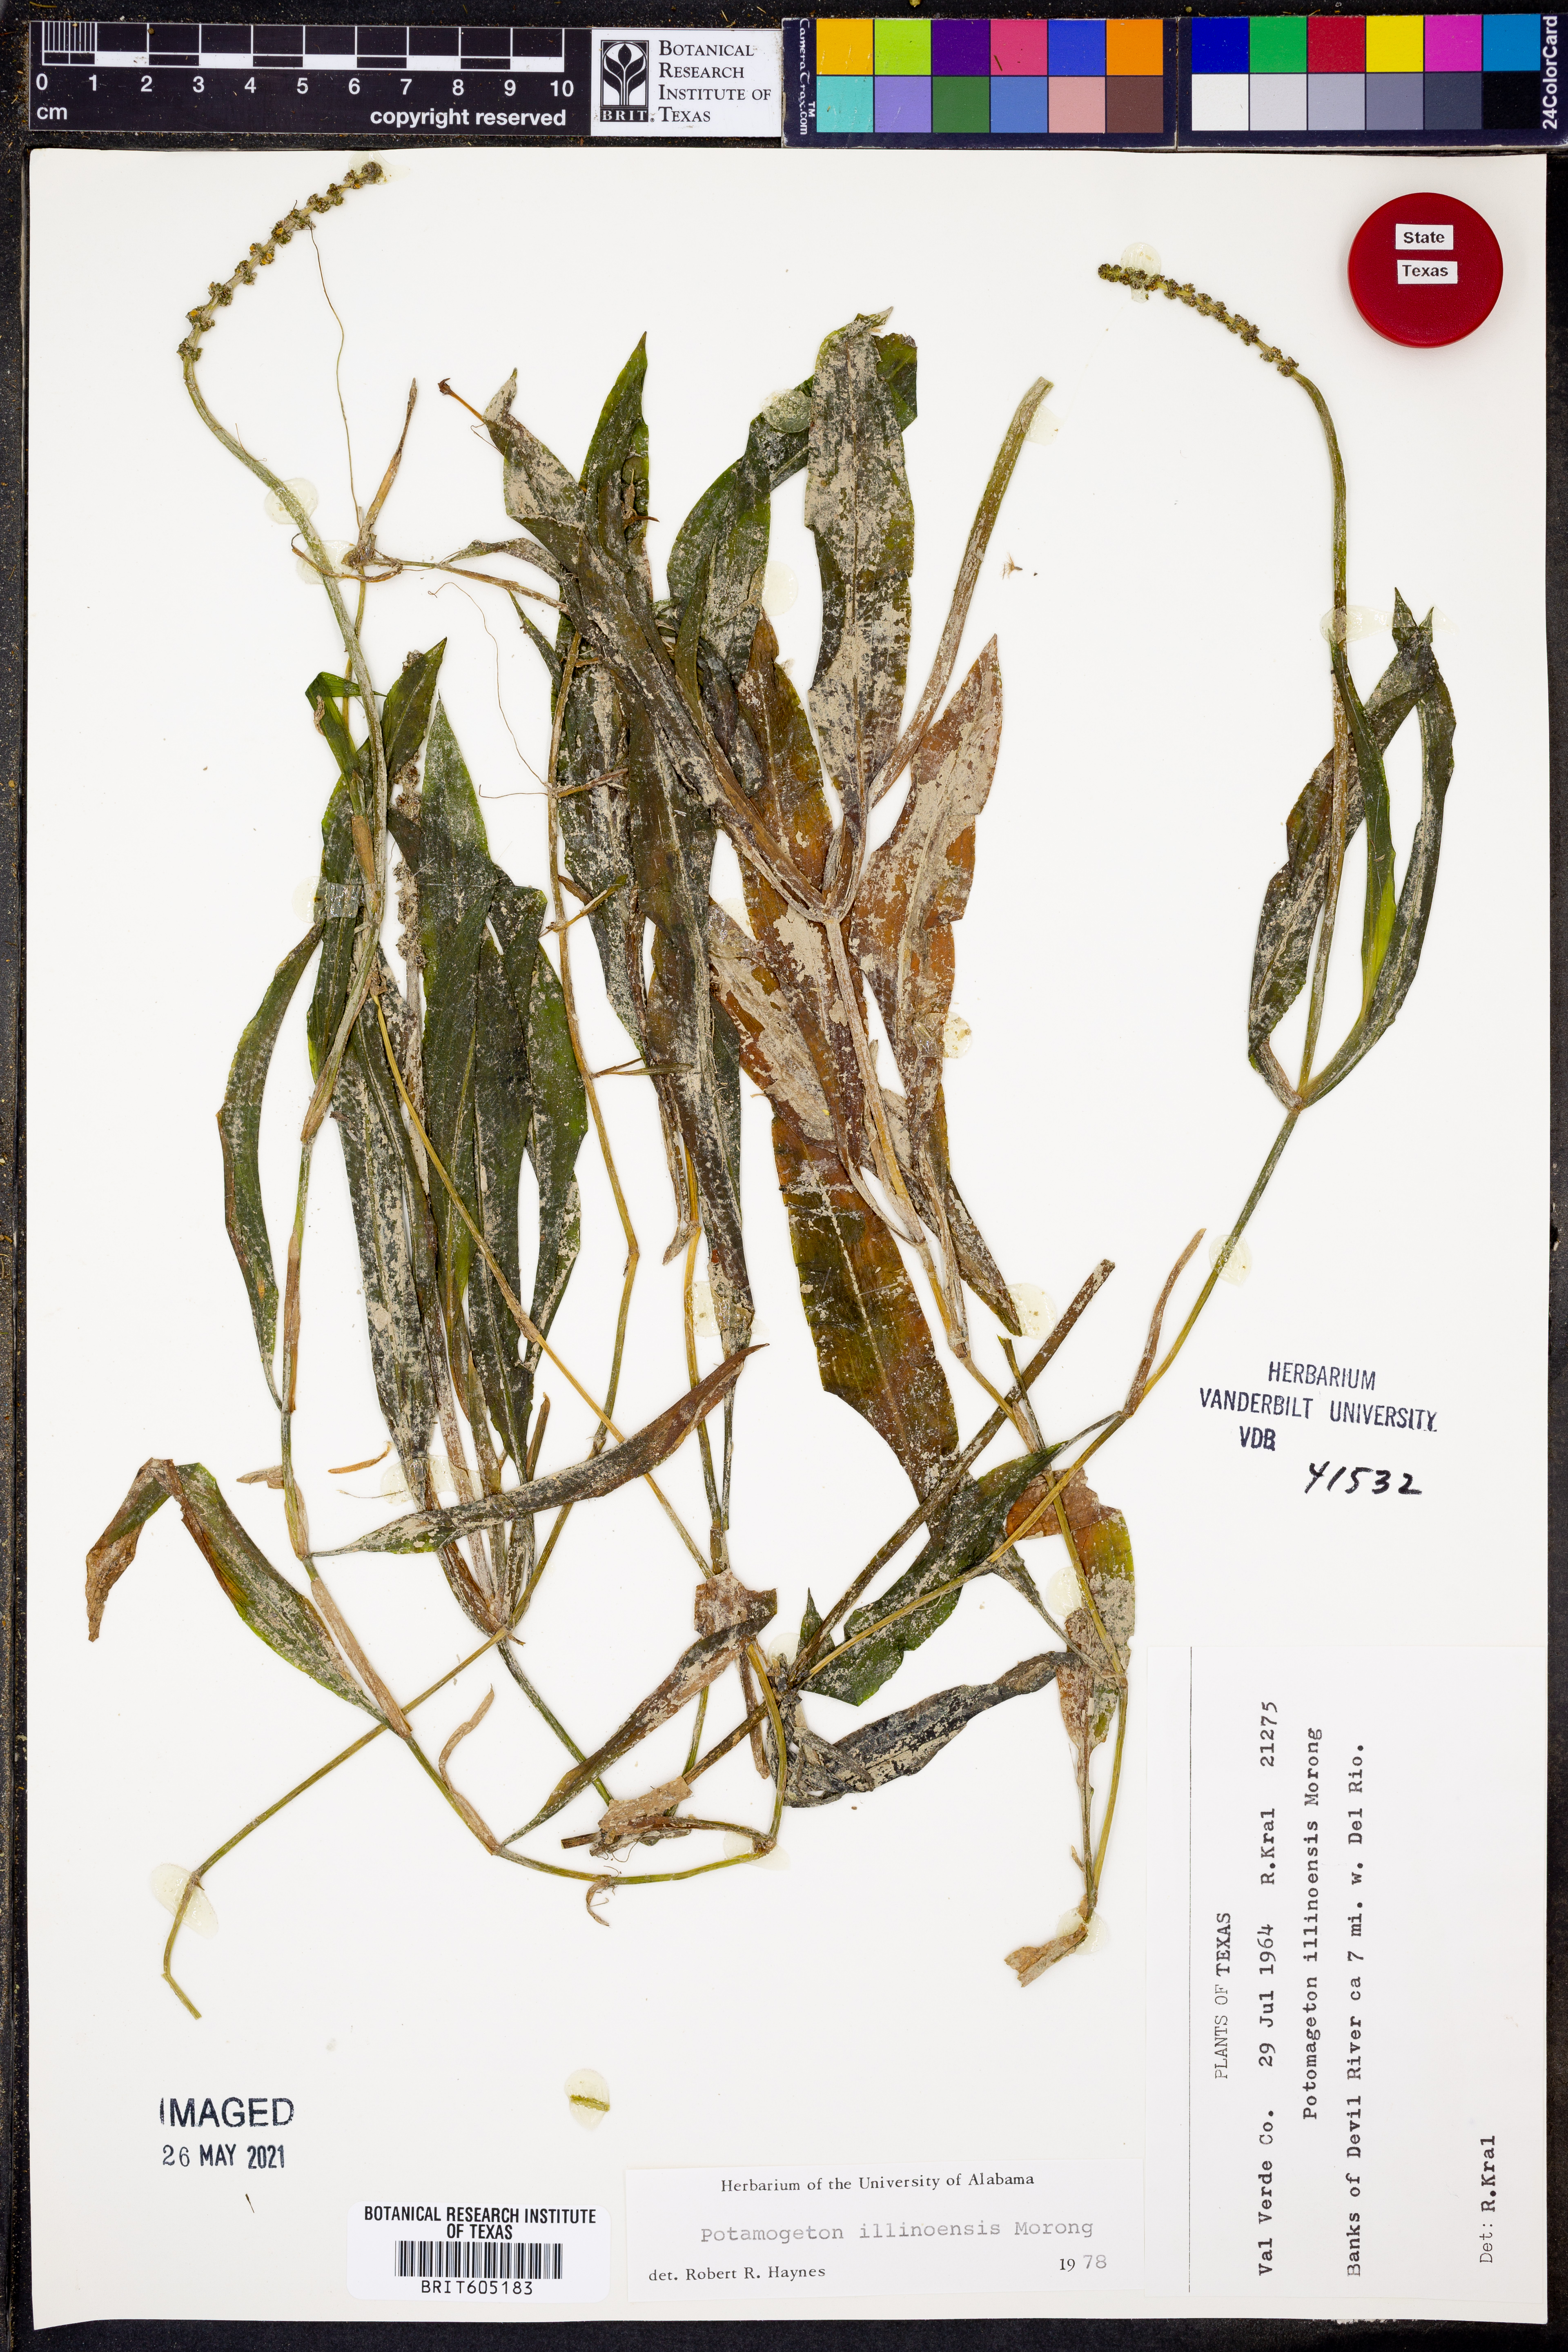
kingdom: Plantae
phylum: Tracheophyta
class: Liliopsida
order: Alismatales
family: Potamogetonaceae
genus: Potamogeton
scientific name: Potamogeton illinoensis
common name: Illinois pondweed
